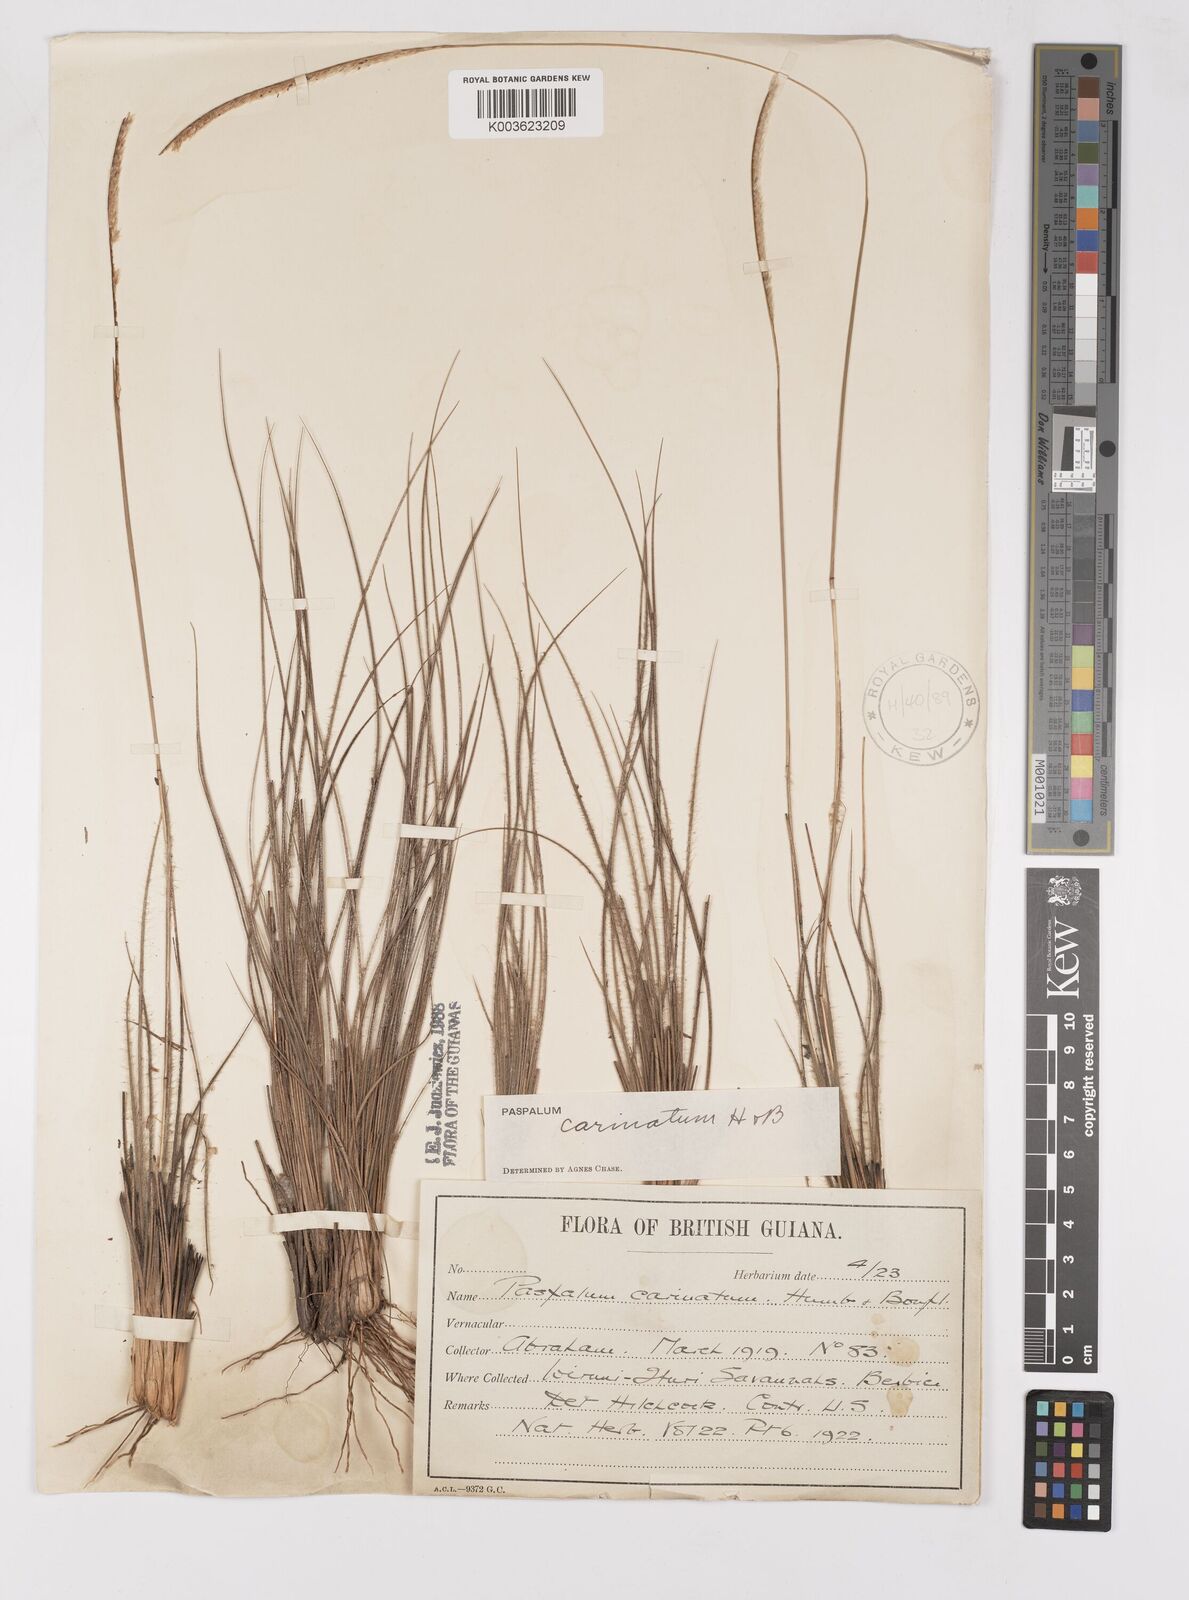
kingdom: Plantae
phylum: Tracheophyta
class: Liliopsida
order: Poales
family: Poaceae
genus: Paspalum
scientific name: Paspalum carinatum
